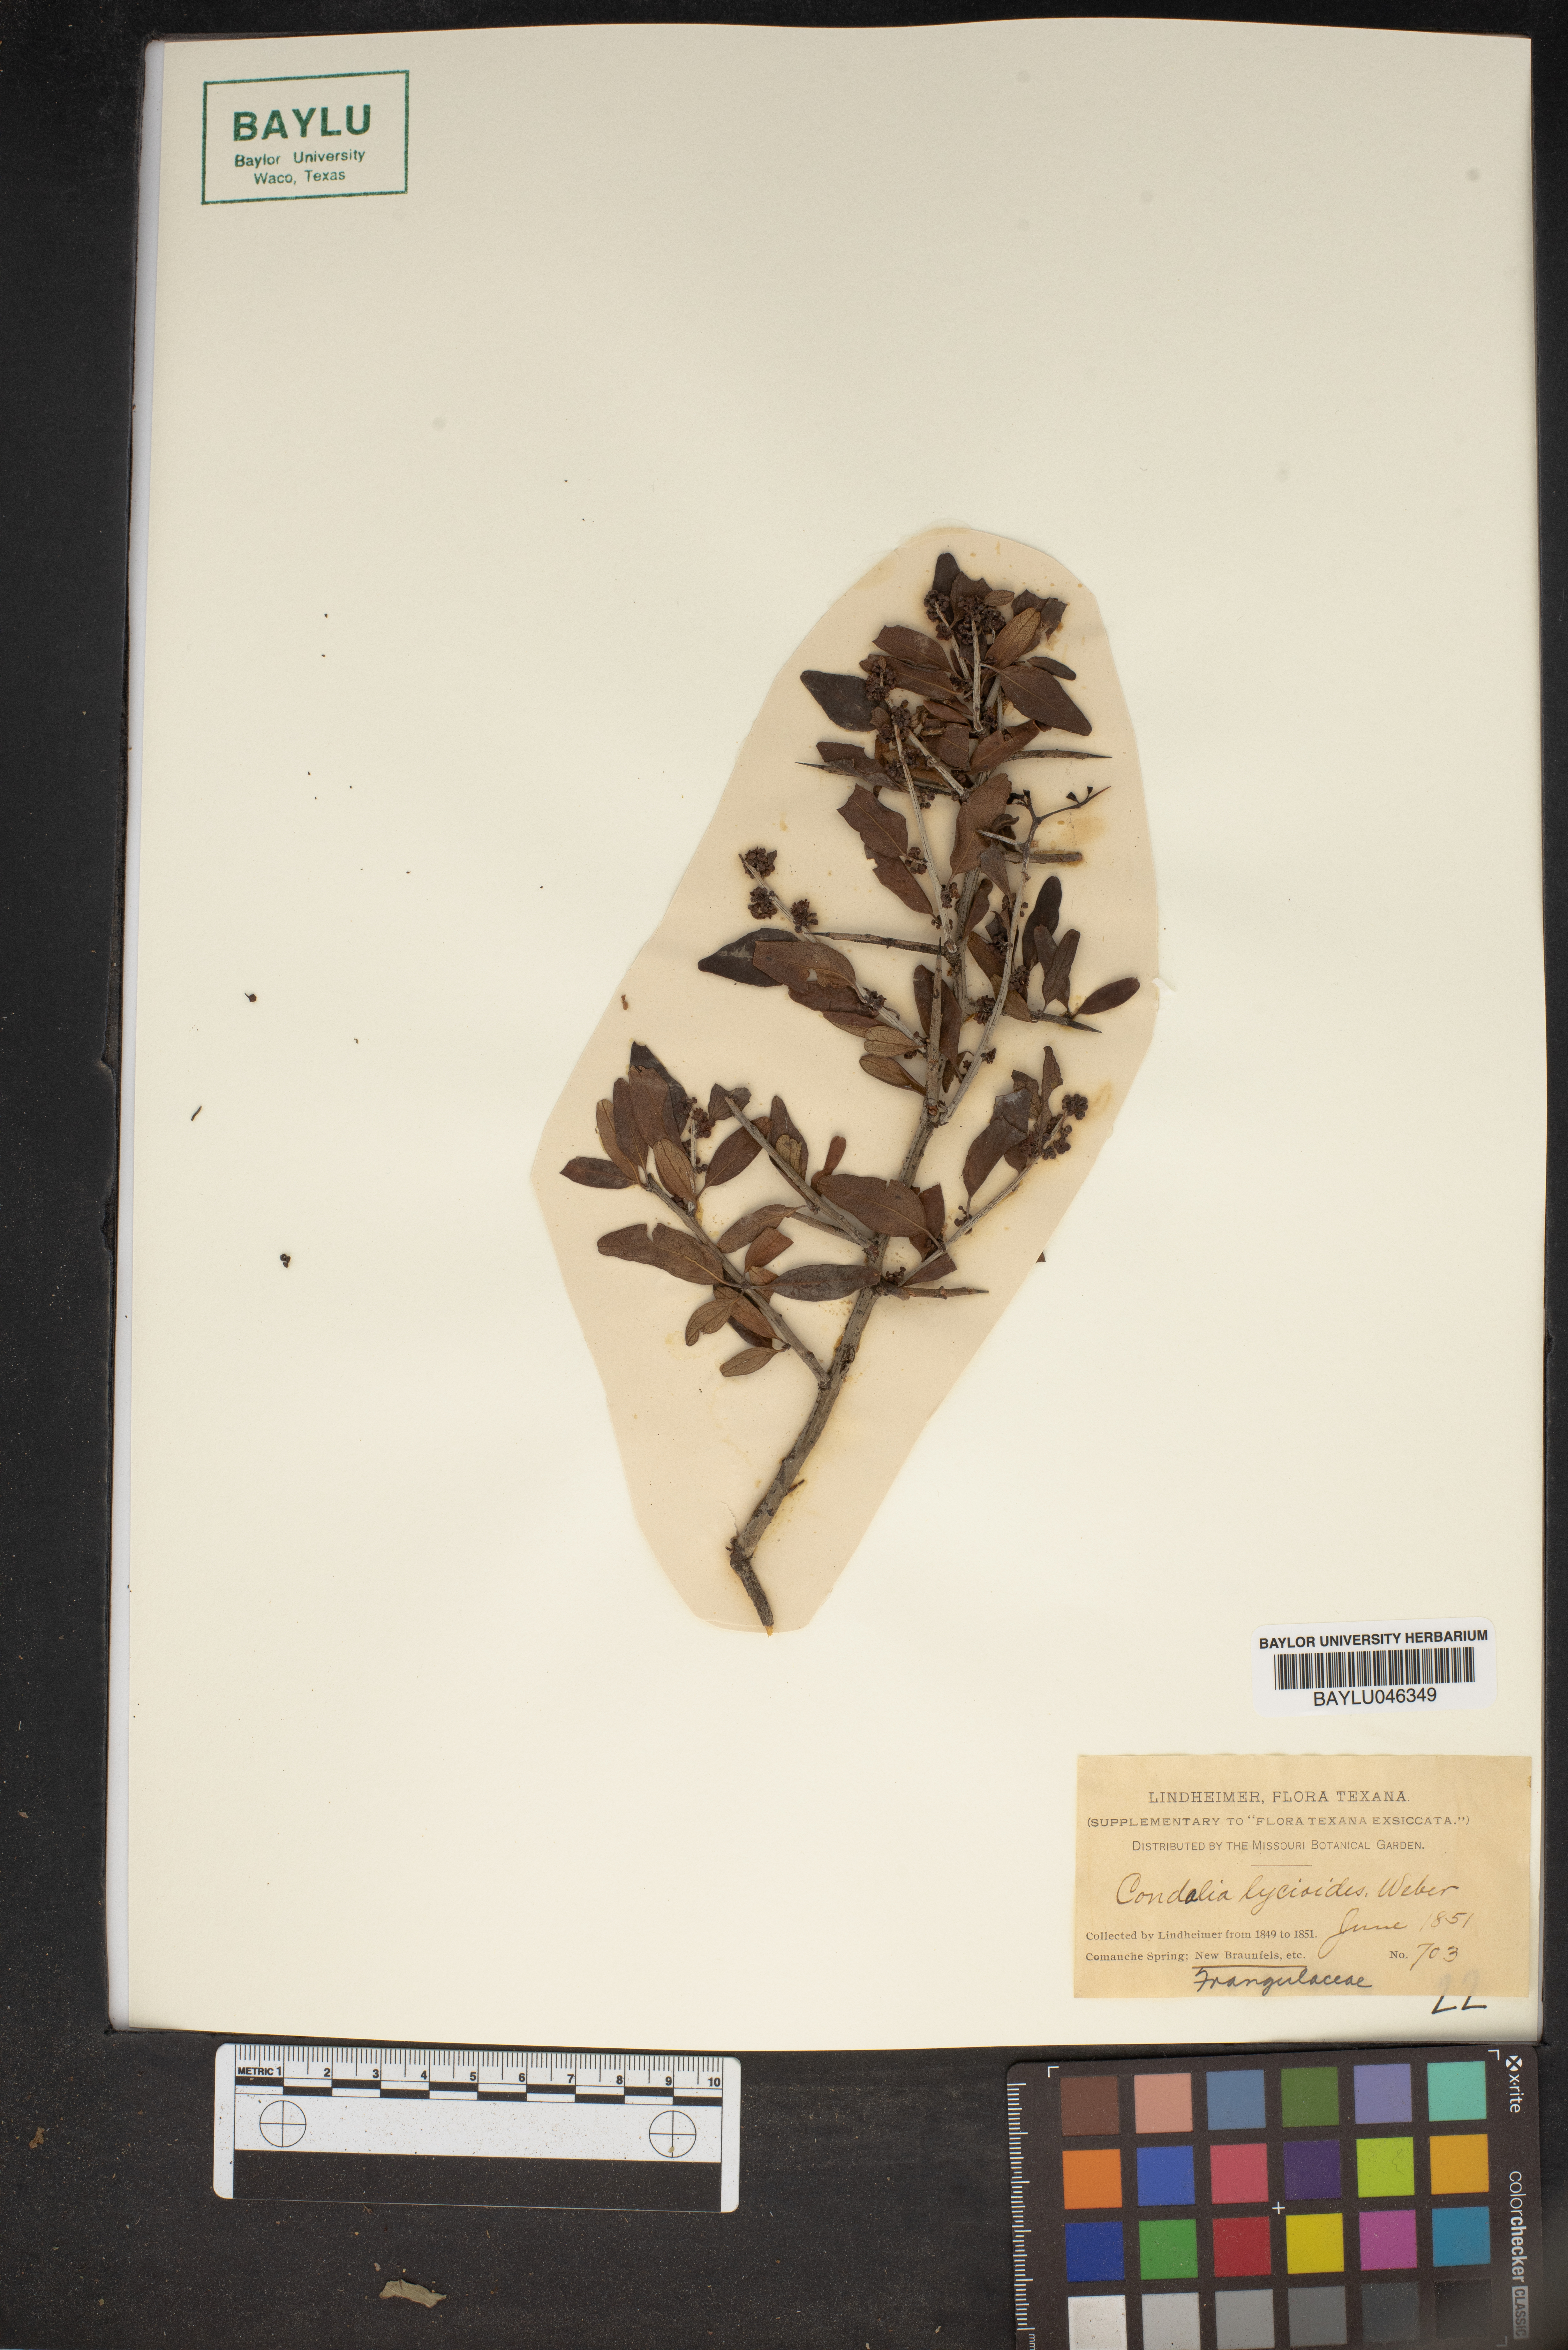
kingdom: Plantae
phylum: Tracheophyta
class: Magnoliopsida
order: Rosales
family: Rhamnaceae
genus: Sarcomphalus
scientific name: Sarcomphalus obtusifolius
